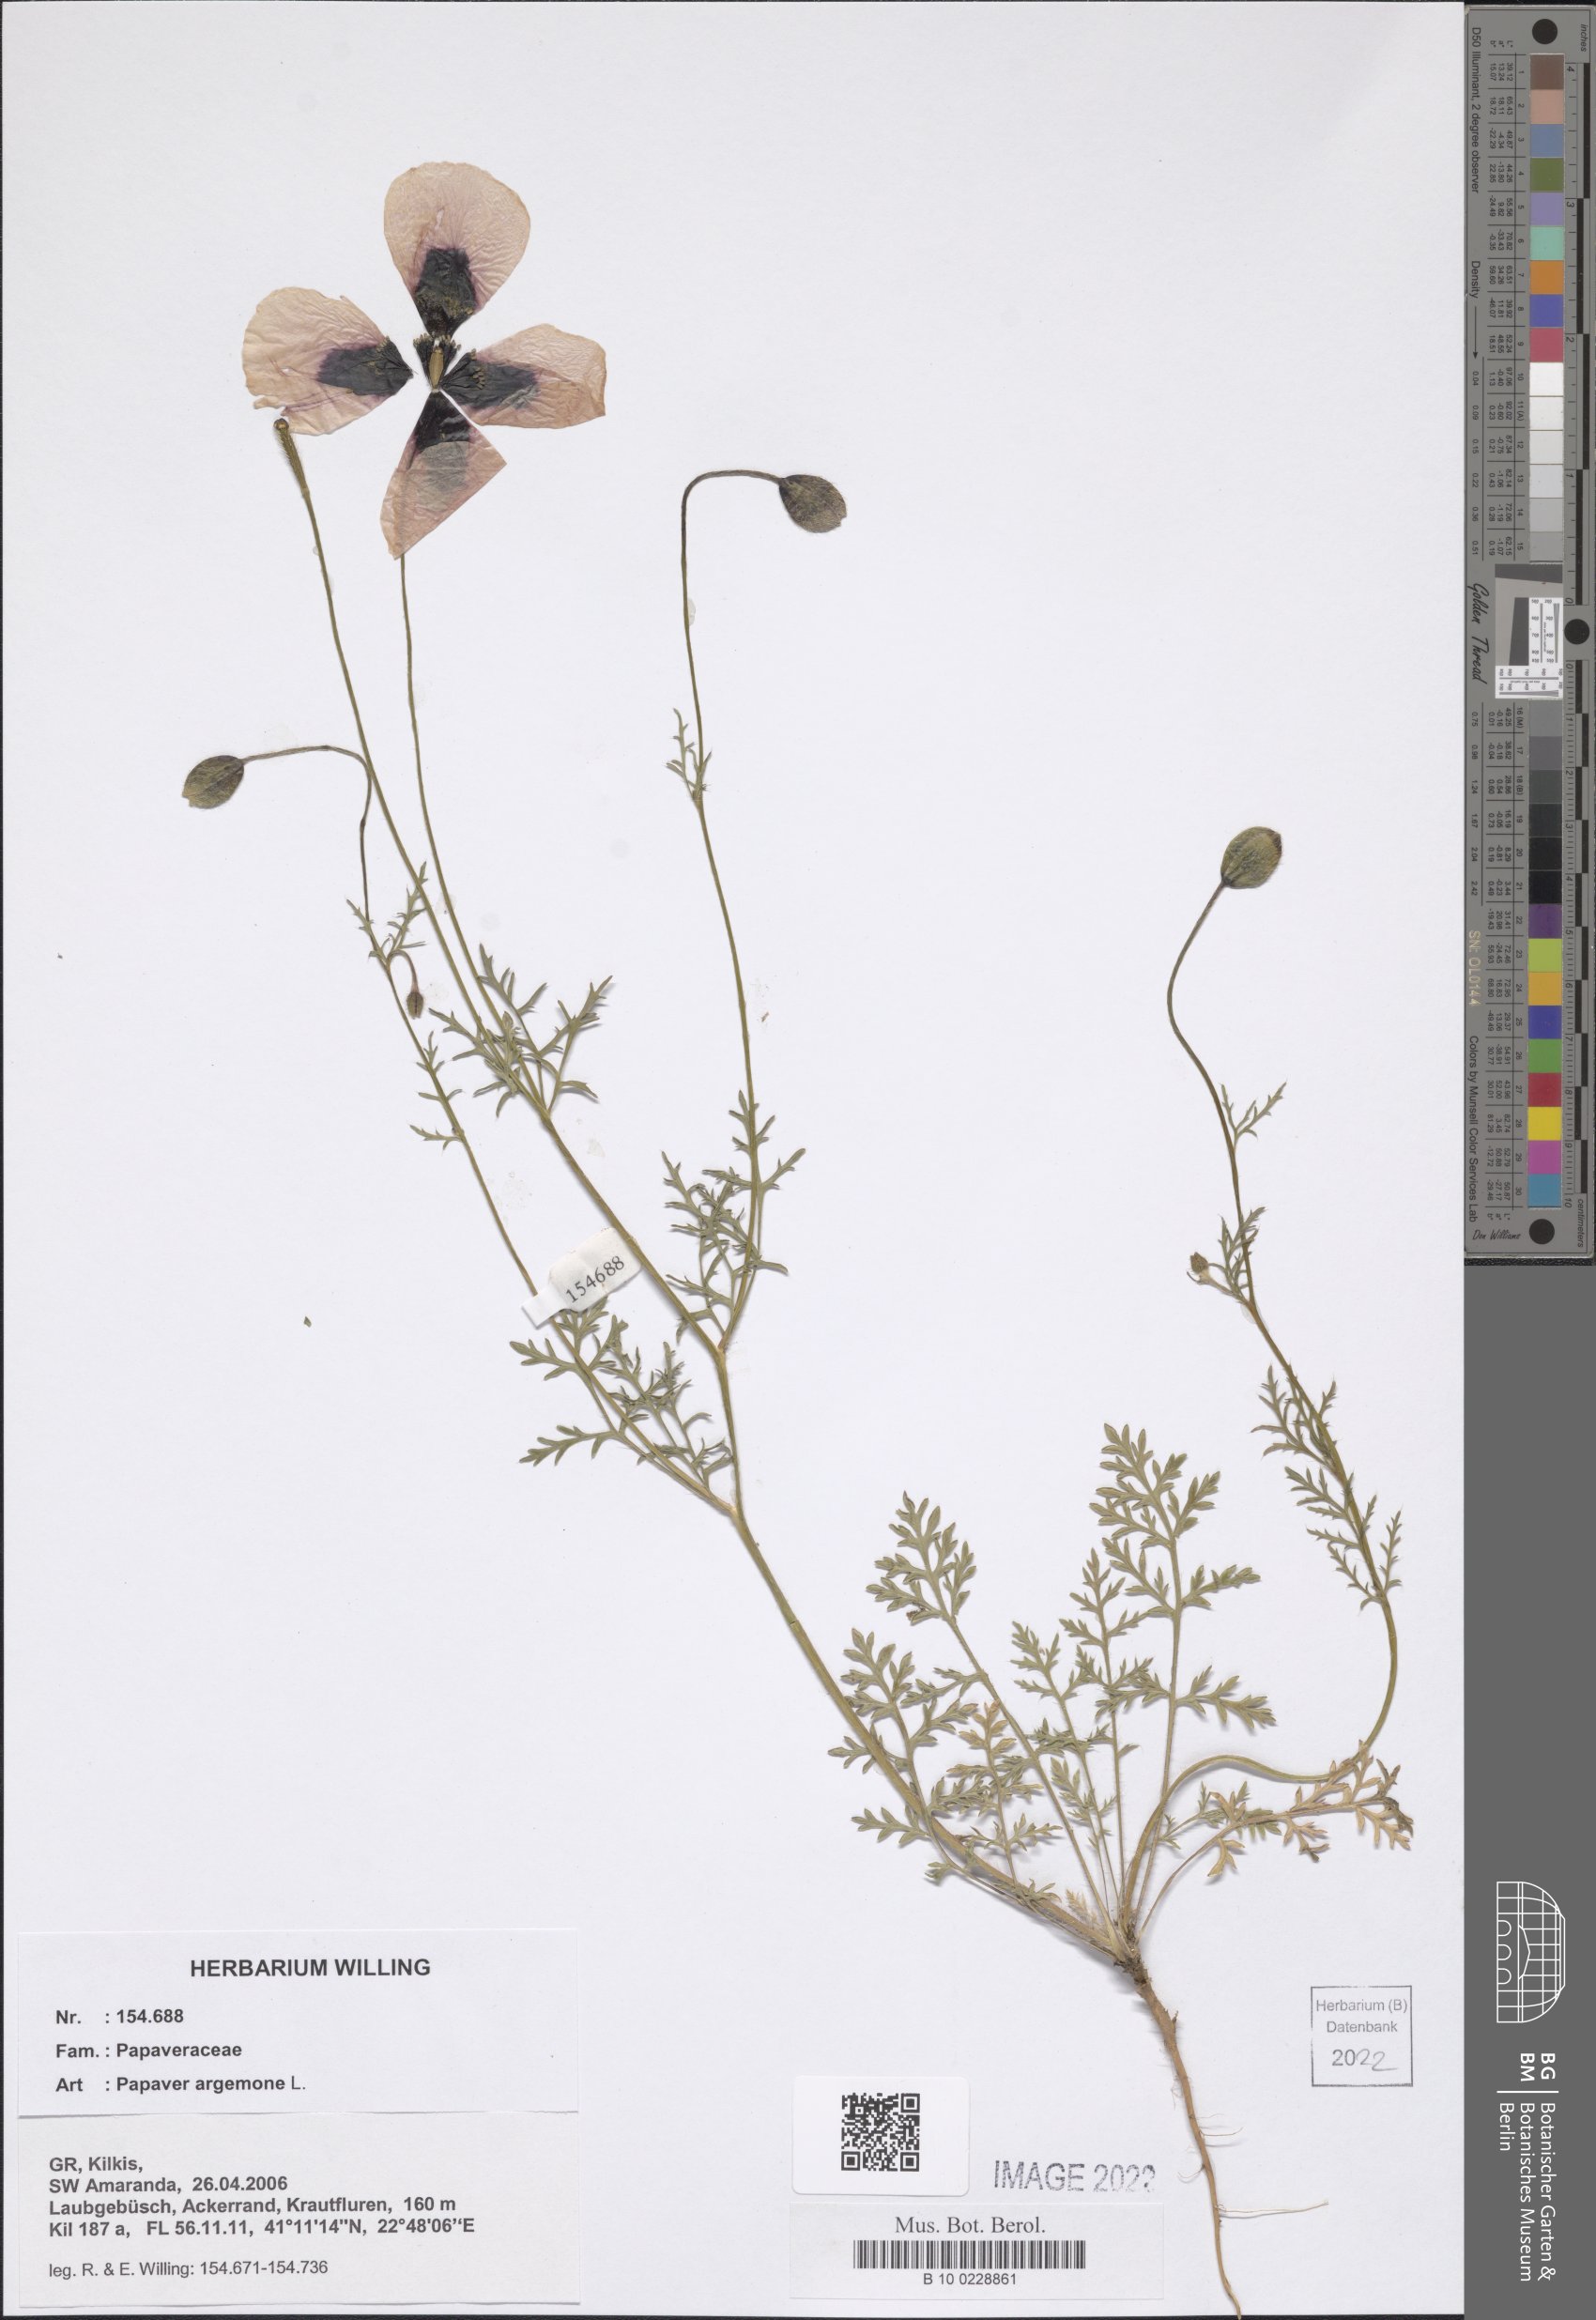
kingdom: Plantae
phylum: Tracheophyta
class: Magnoliopsida
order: Ranunculales
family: Papaveraceae
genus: Roemeria
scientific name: Roemeria argemone
